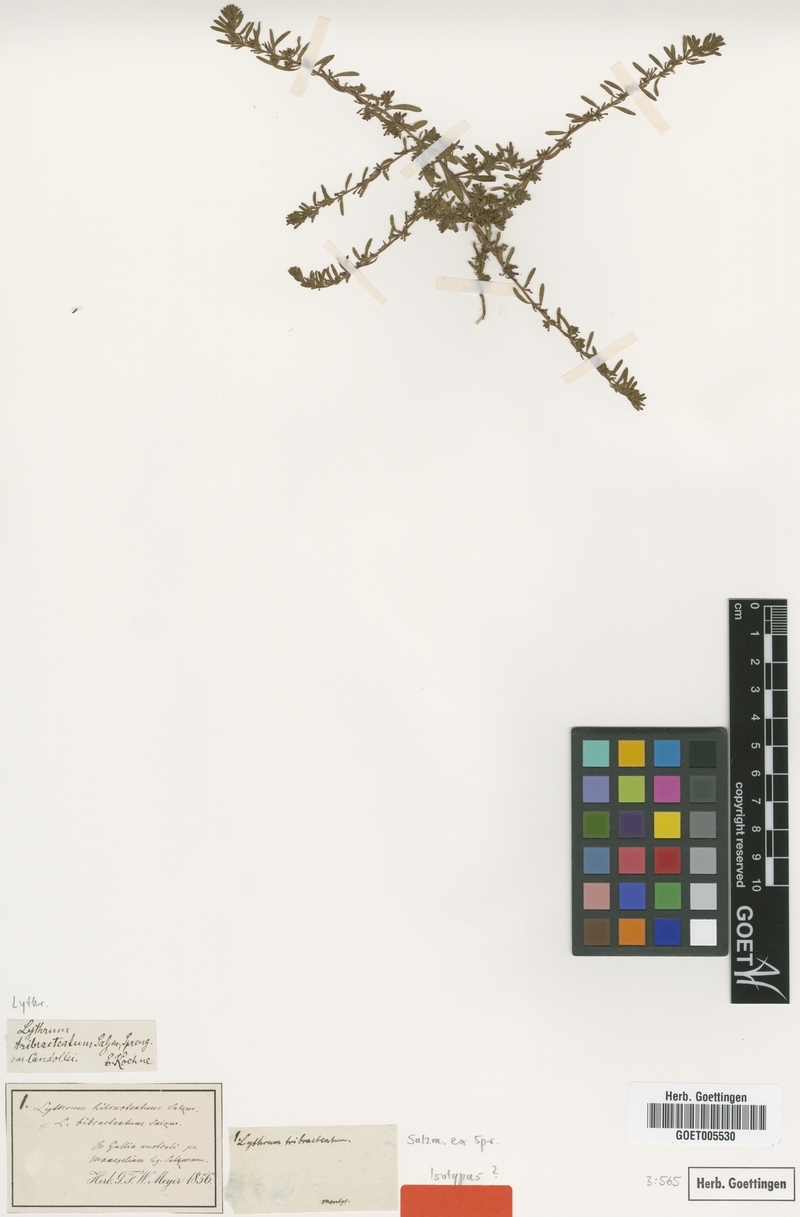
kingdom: Plantae
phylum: Tracheophyta
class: Magnoliopsida
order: Myrtales
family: Lythraceae
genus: Lythrum
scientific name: Lythrum tribracteatum
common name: Threebract loosestrife
